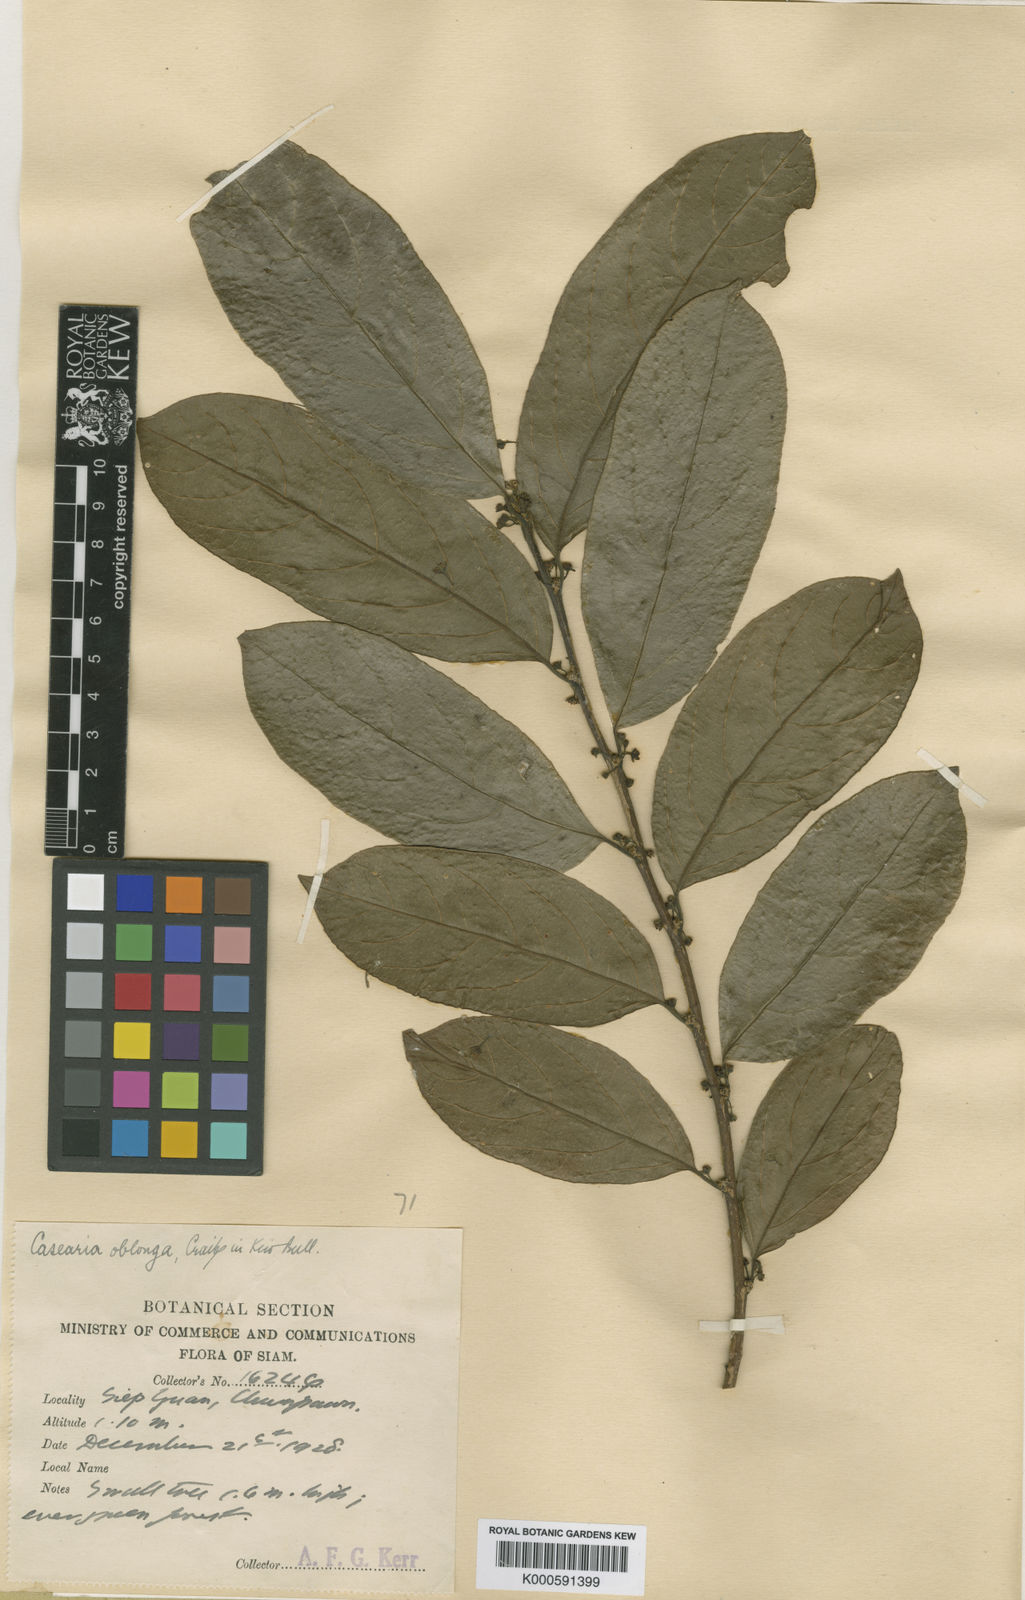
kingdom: Plantae
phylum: Tracheophyta
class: Magnoliopsida
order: Malpighiales
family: Salicaceae
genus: Casearia
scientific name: Casearia grewiifolia
